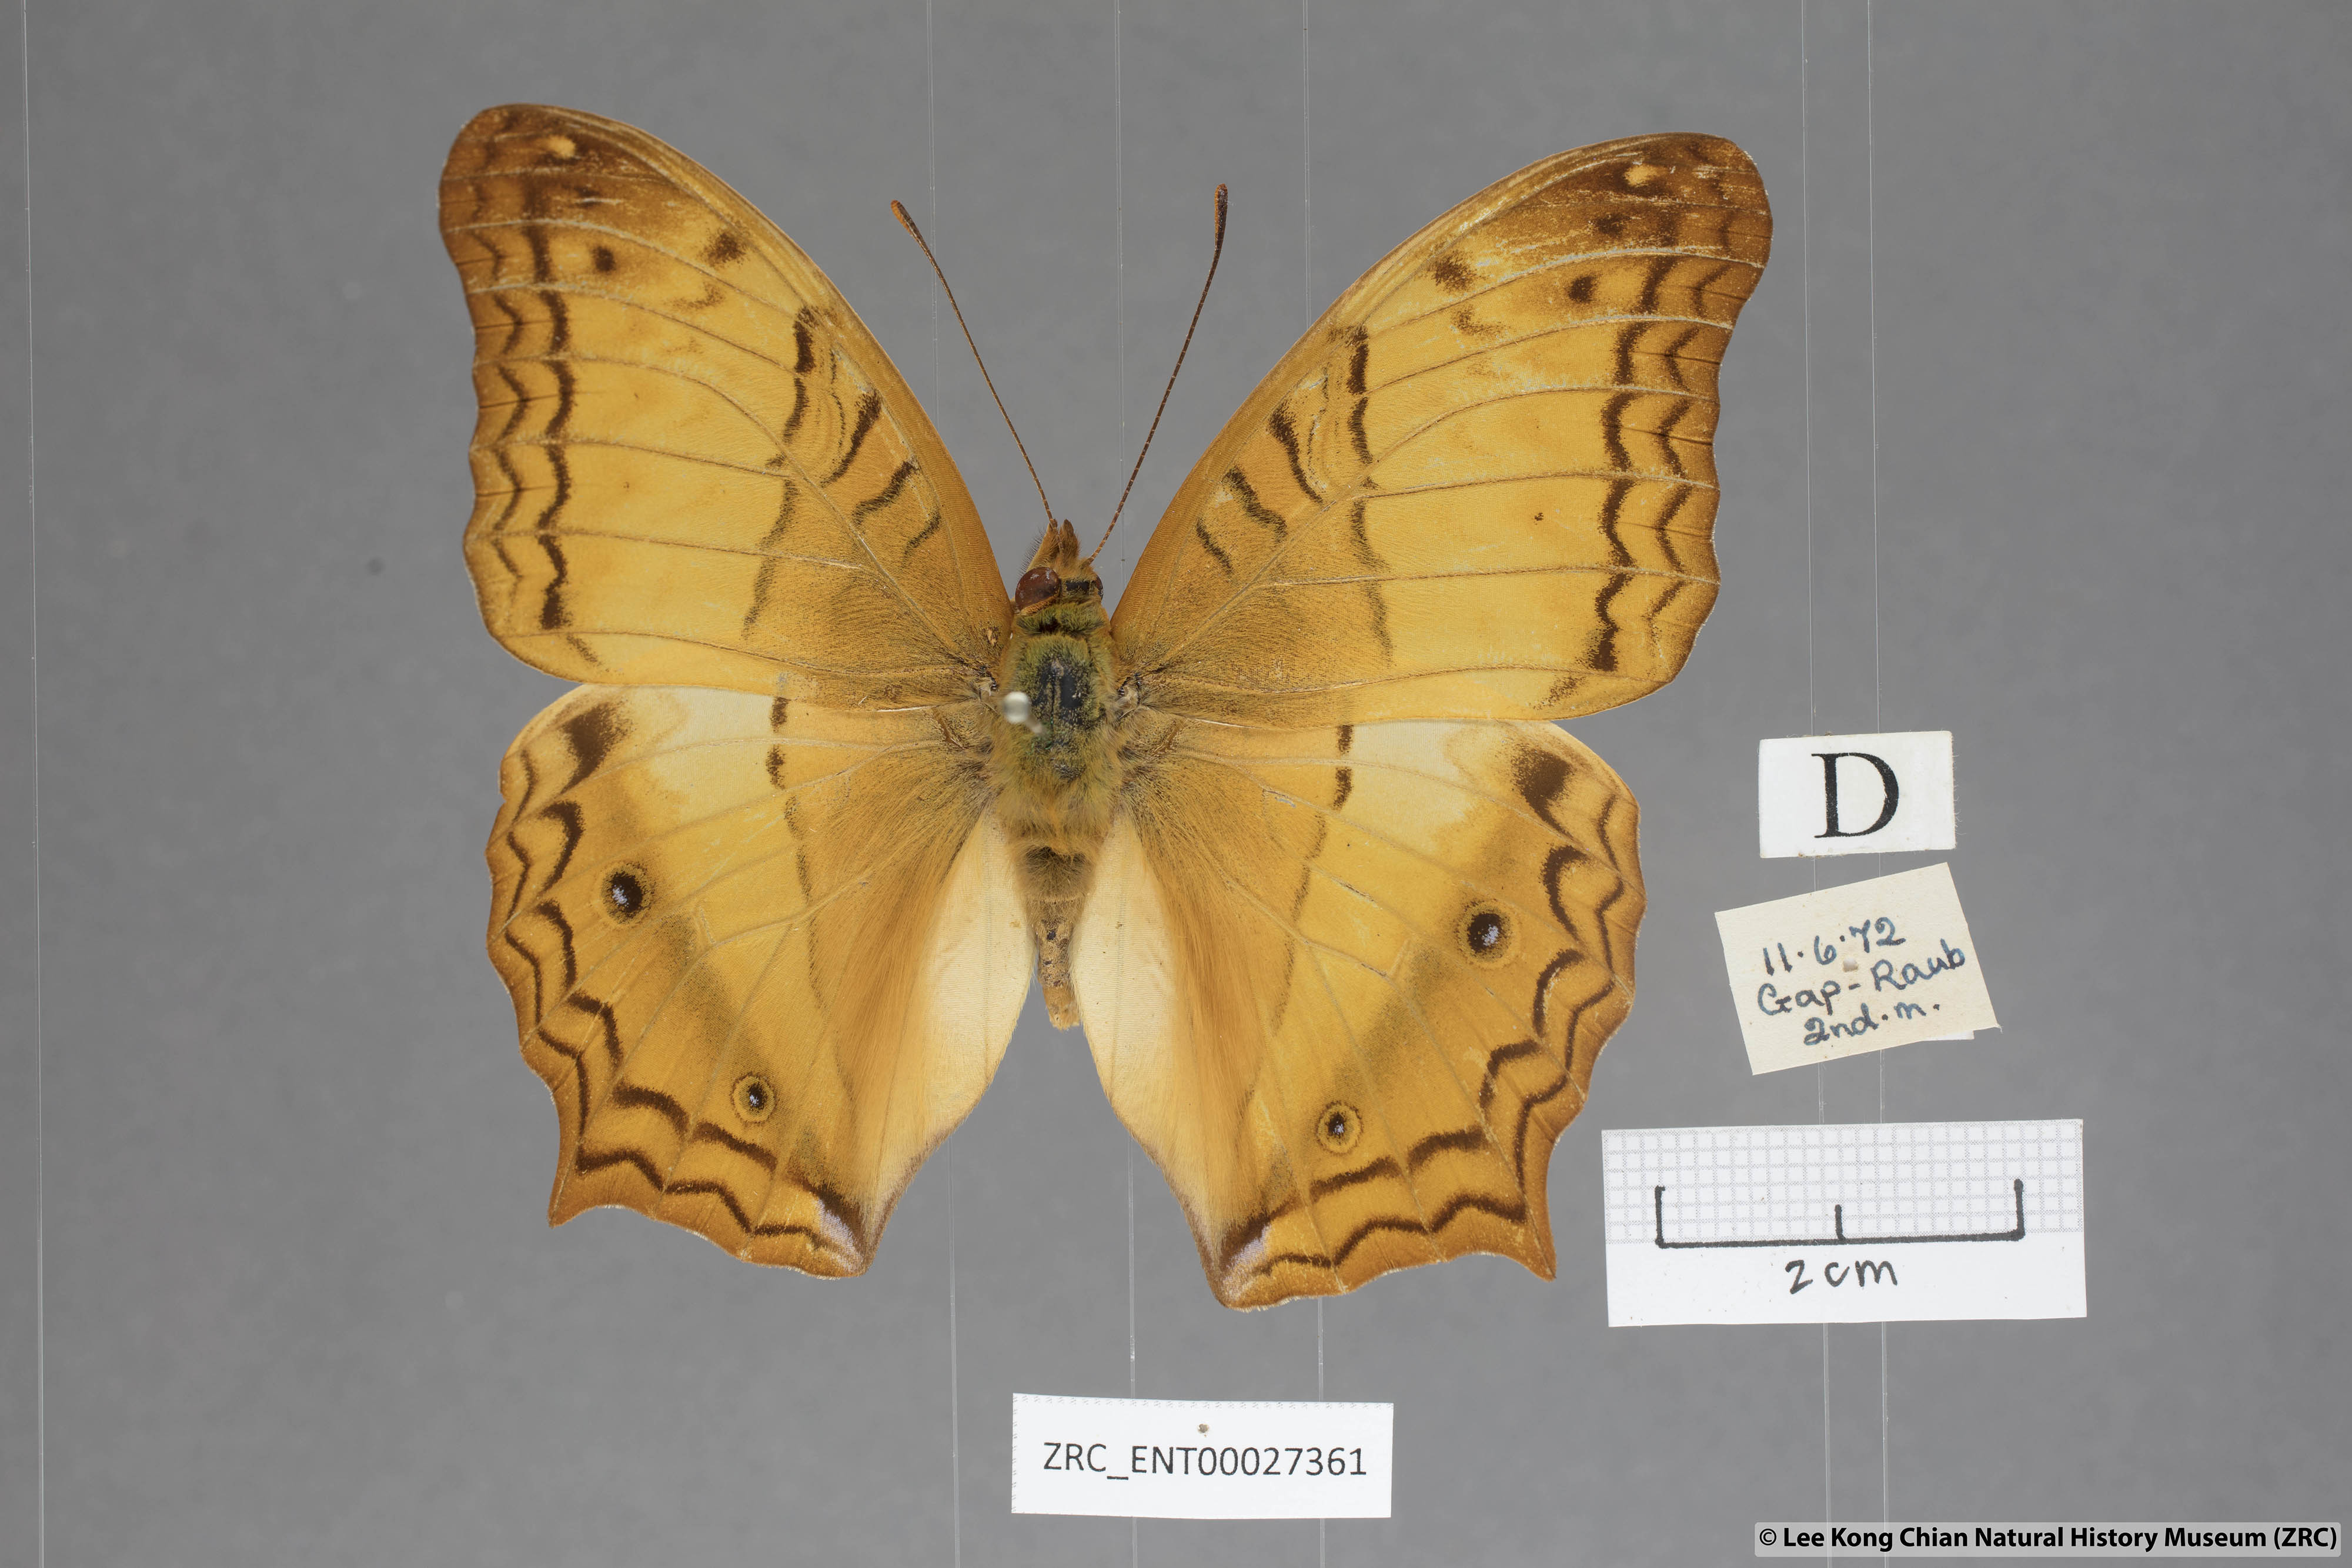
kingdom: Animalia
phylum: Arthropoda
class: Insecta
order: Lepidoptera
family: Nymphalidae
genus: Vindula
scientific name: Vindula erota
